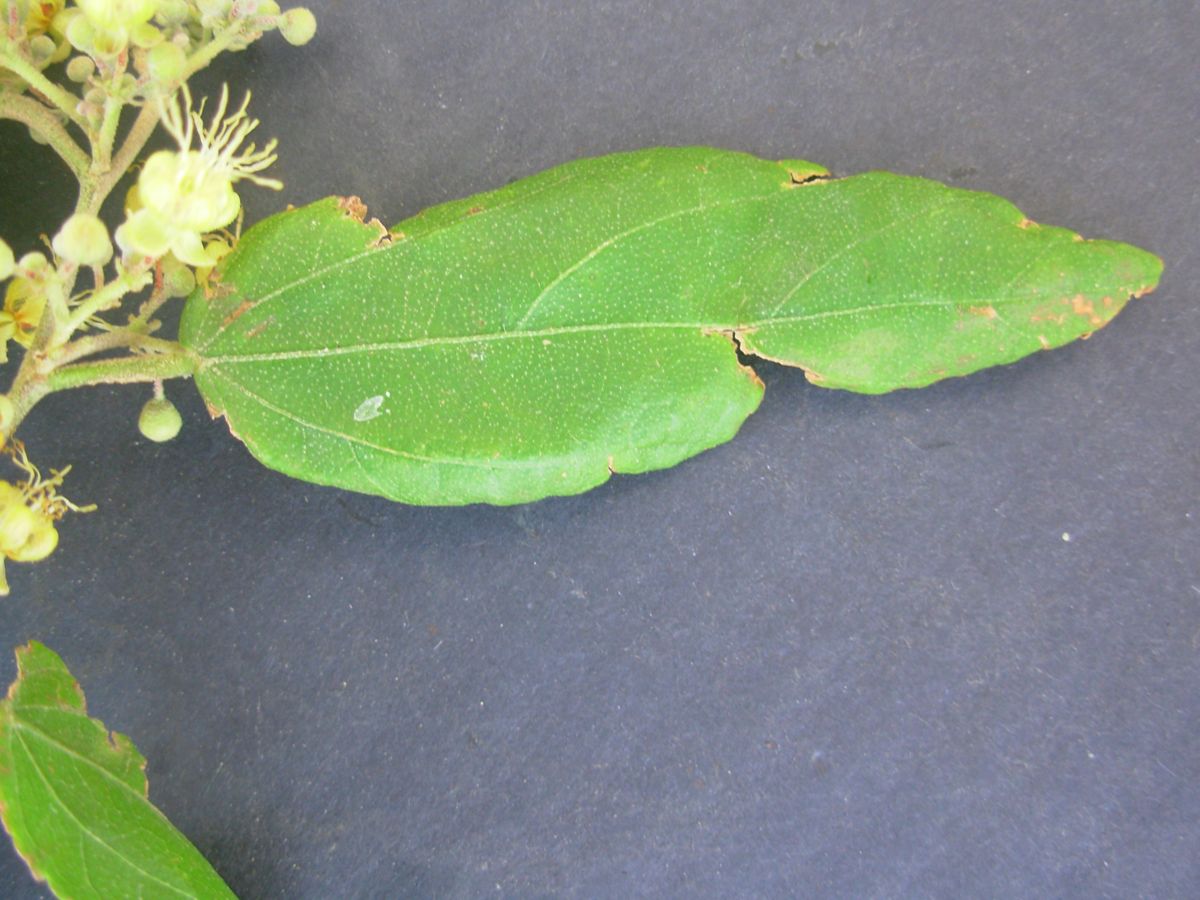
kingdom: Plantae
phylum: Tracheophyta
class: Magnoliopsida
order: Malvales
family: Malvaceae
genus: Guazuma
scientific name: Guazuma ulmifolia
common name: Bastard-cedar
